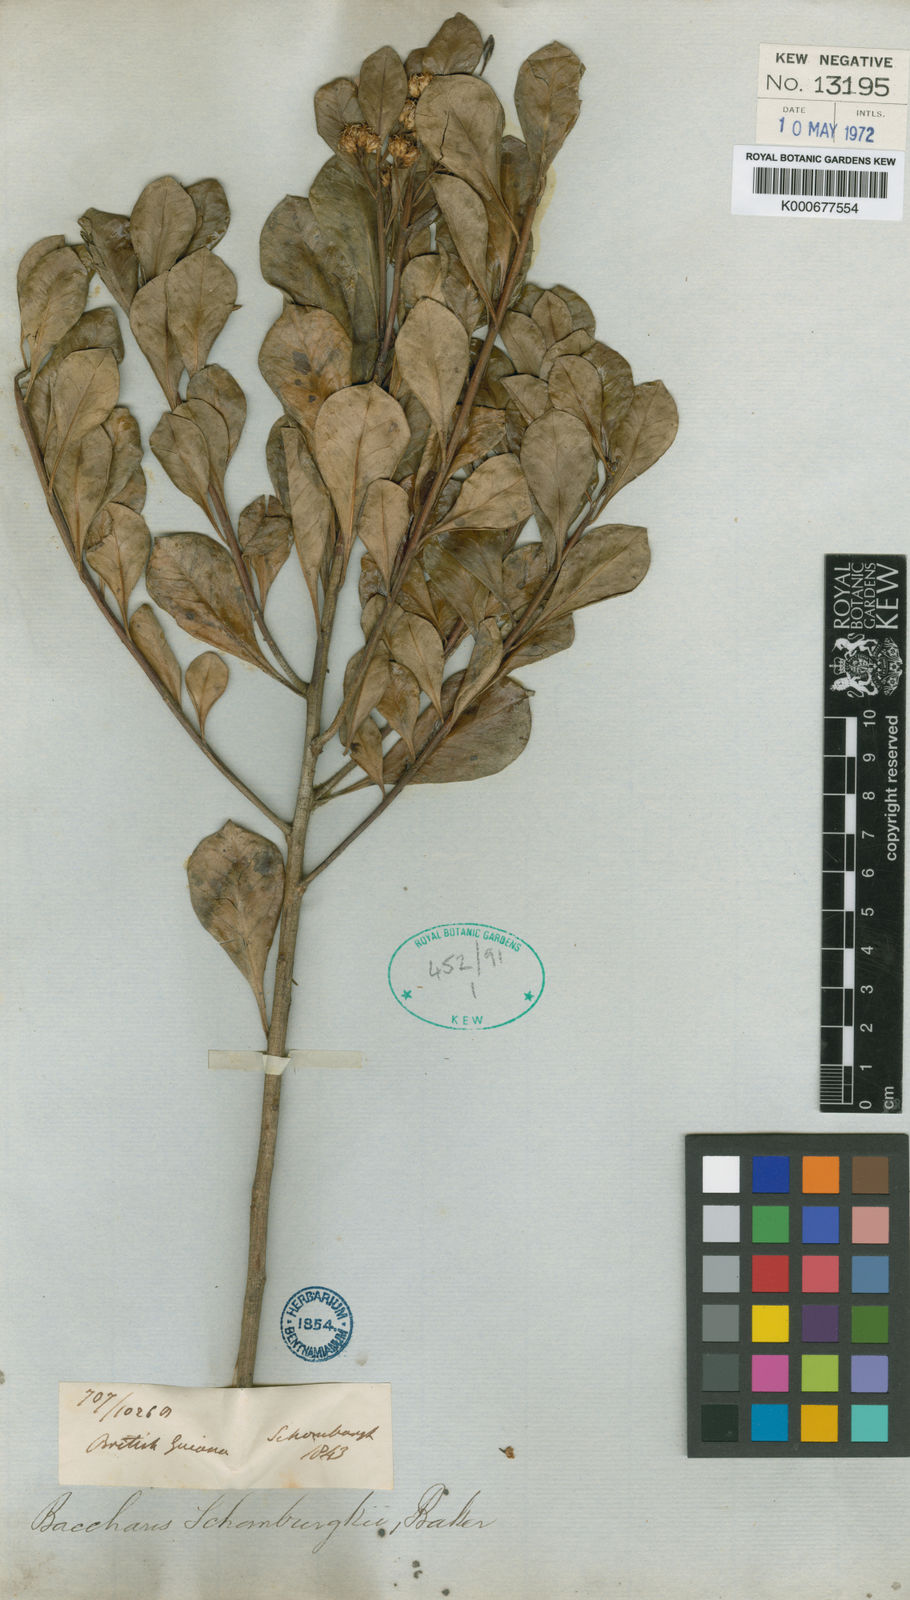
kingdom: Plantae
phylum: Tracheophyta
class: Magnoliopsida
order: Asterales
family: Asteraceae
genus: Baccharis
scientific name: Baccharis schomburgkii
